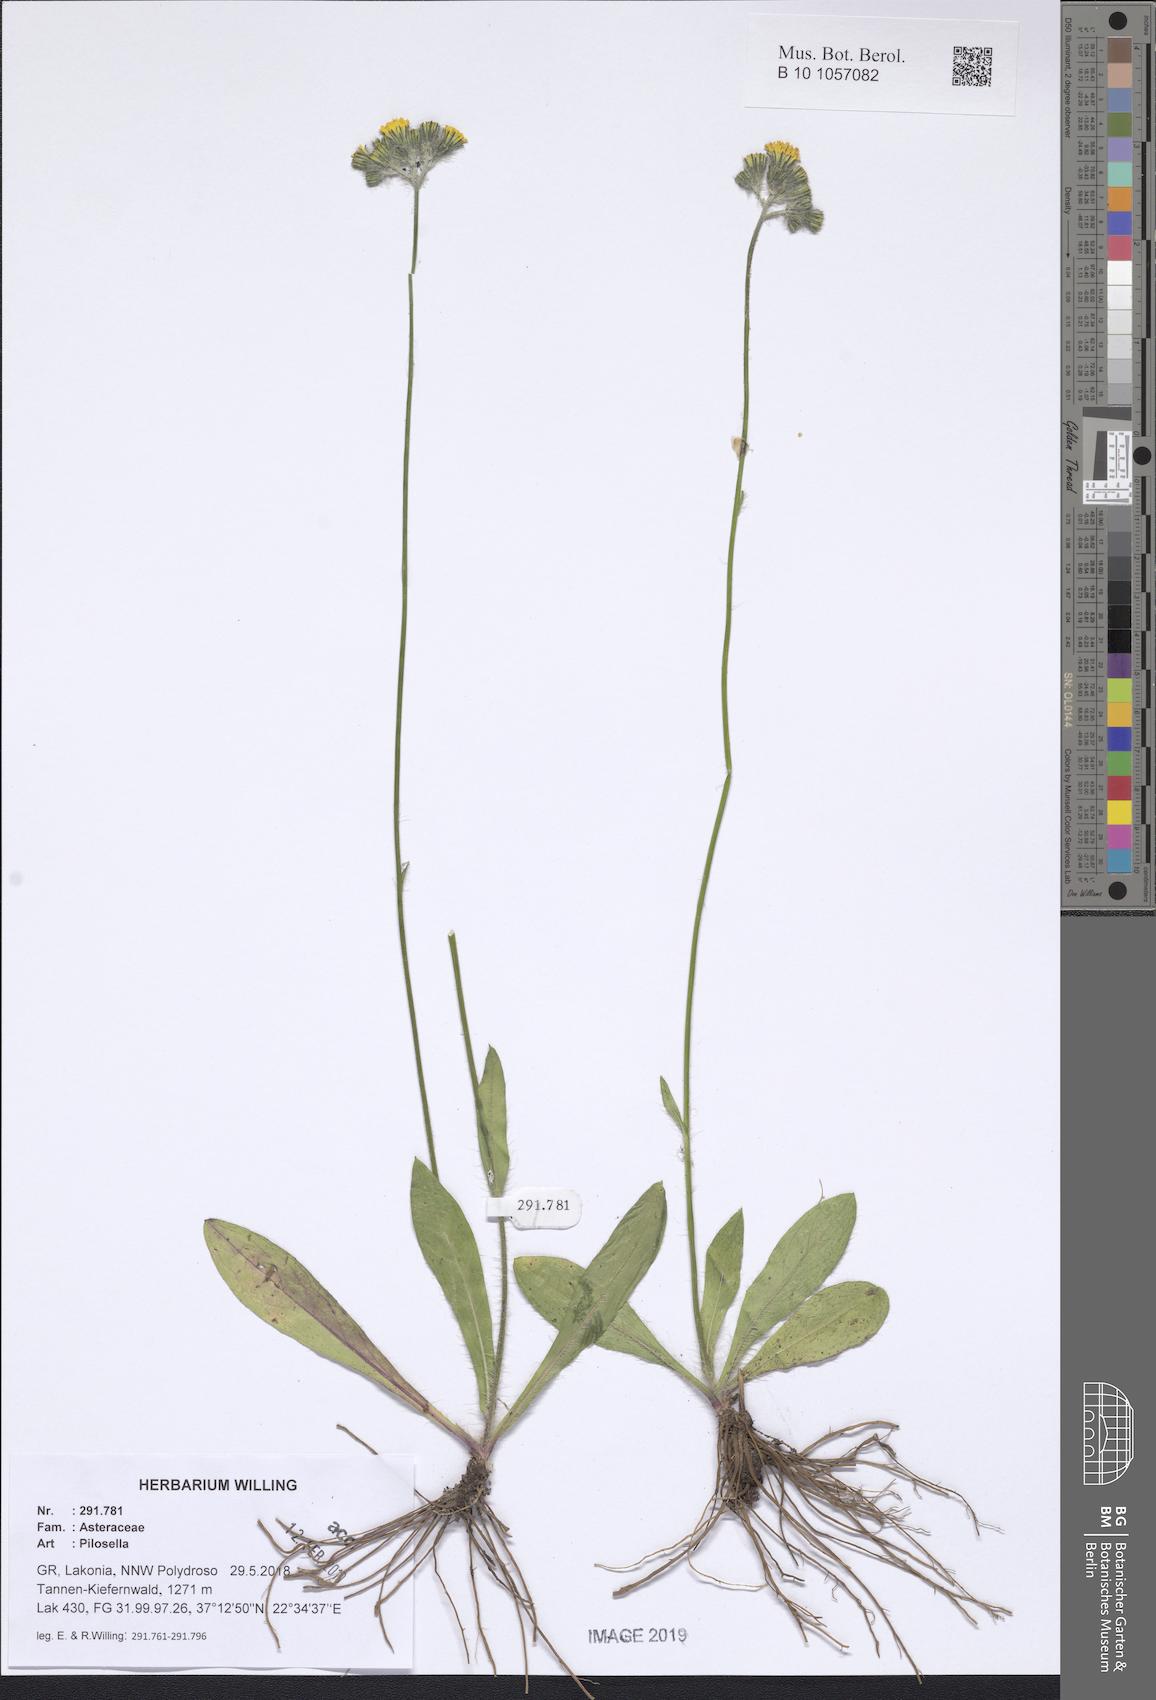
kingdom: Plantae
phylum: Tracheophyta
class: Magnoliopsida
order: Asterales
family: Asteraceae
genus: Pilosella
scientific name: Pilosella
